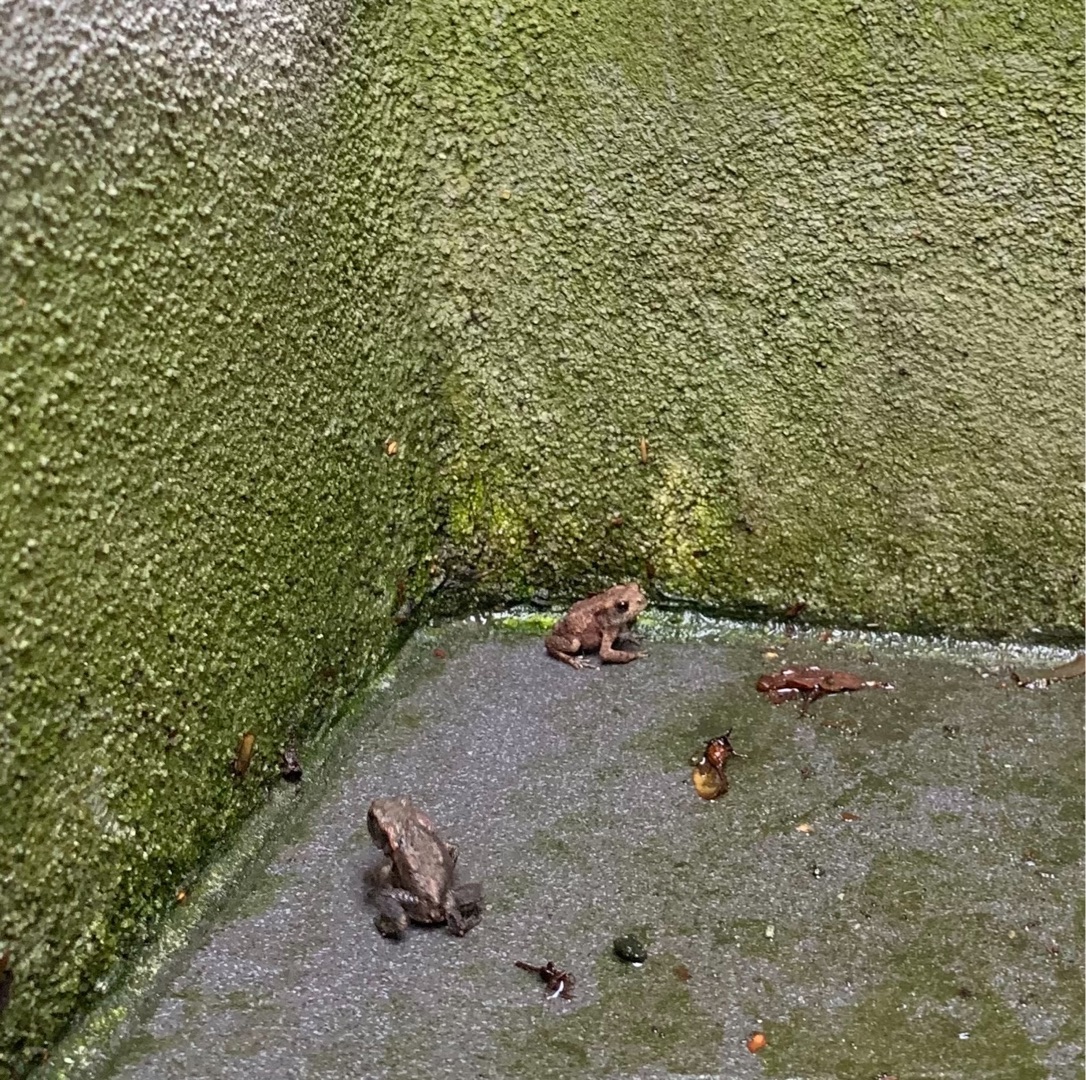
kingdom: Animalia
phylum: Chordata
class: Amphibia
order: Anura
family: Bufonidae
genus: Bufo
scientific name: Bufo bufo
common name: Skrubtudse
